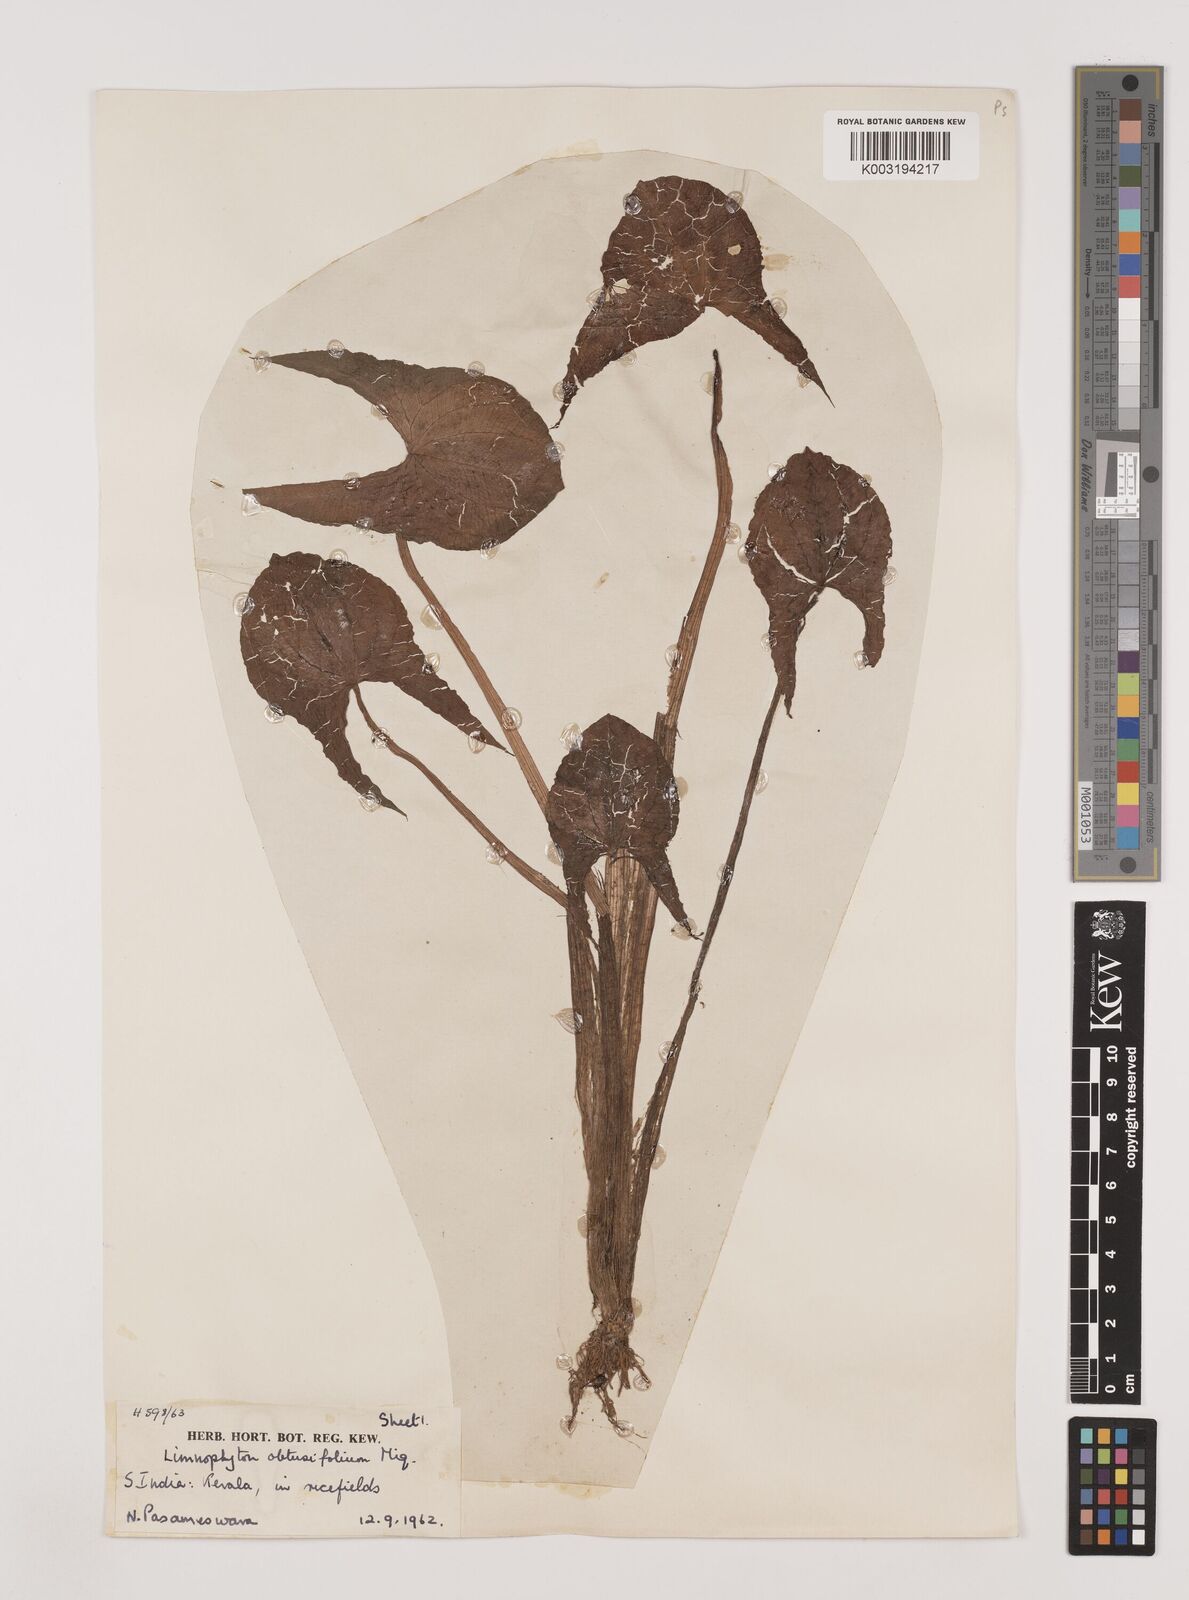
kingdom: Plantae
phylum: Tracheophyta
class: Liliopsida
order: Alismatales
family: Alismataceae
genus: Limnophyton
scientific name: Limnophyton obtusifolium
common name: Arrow head
